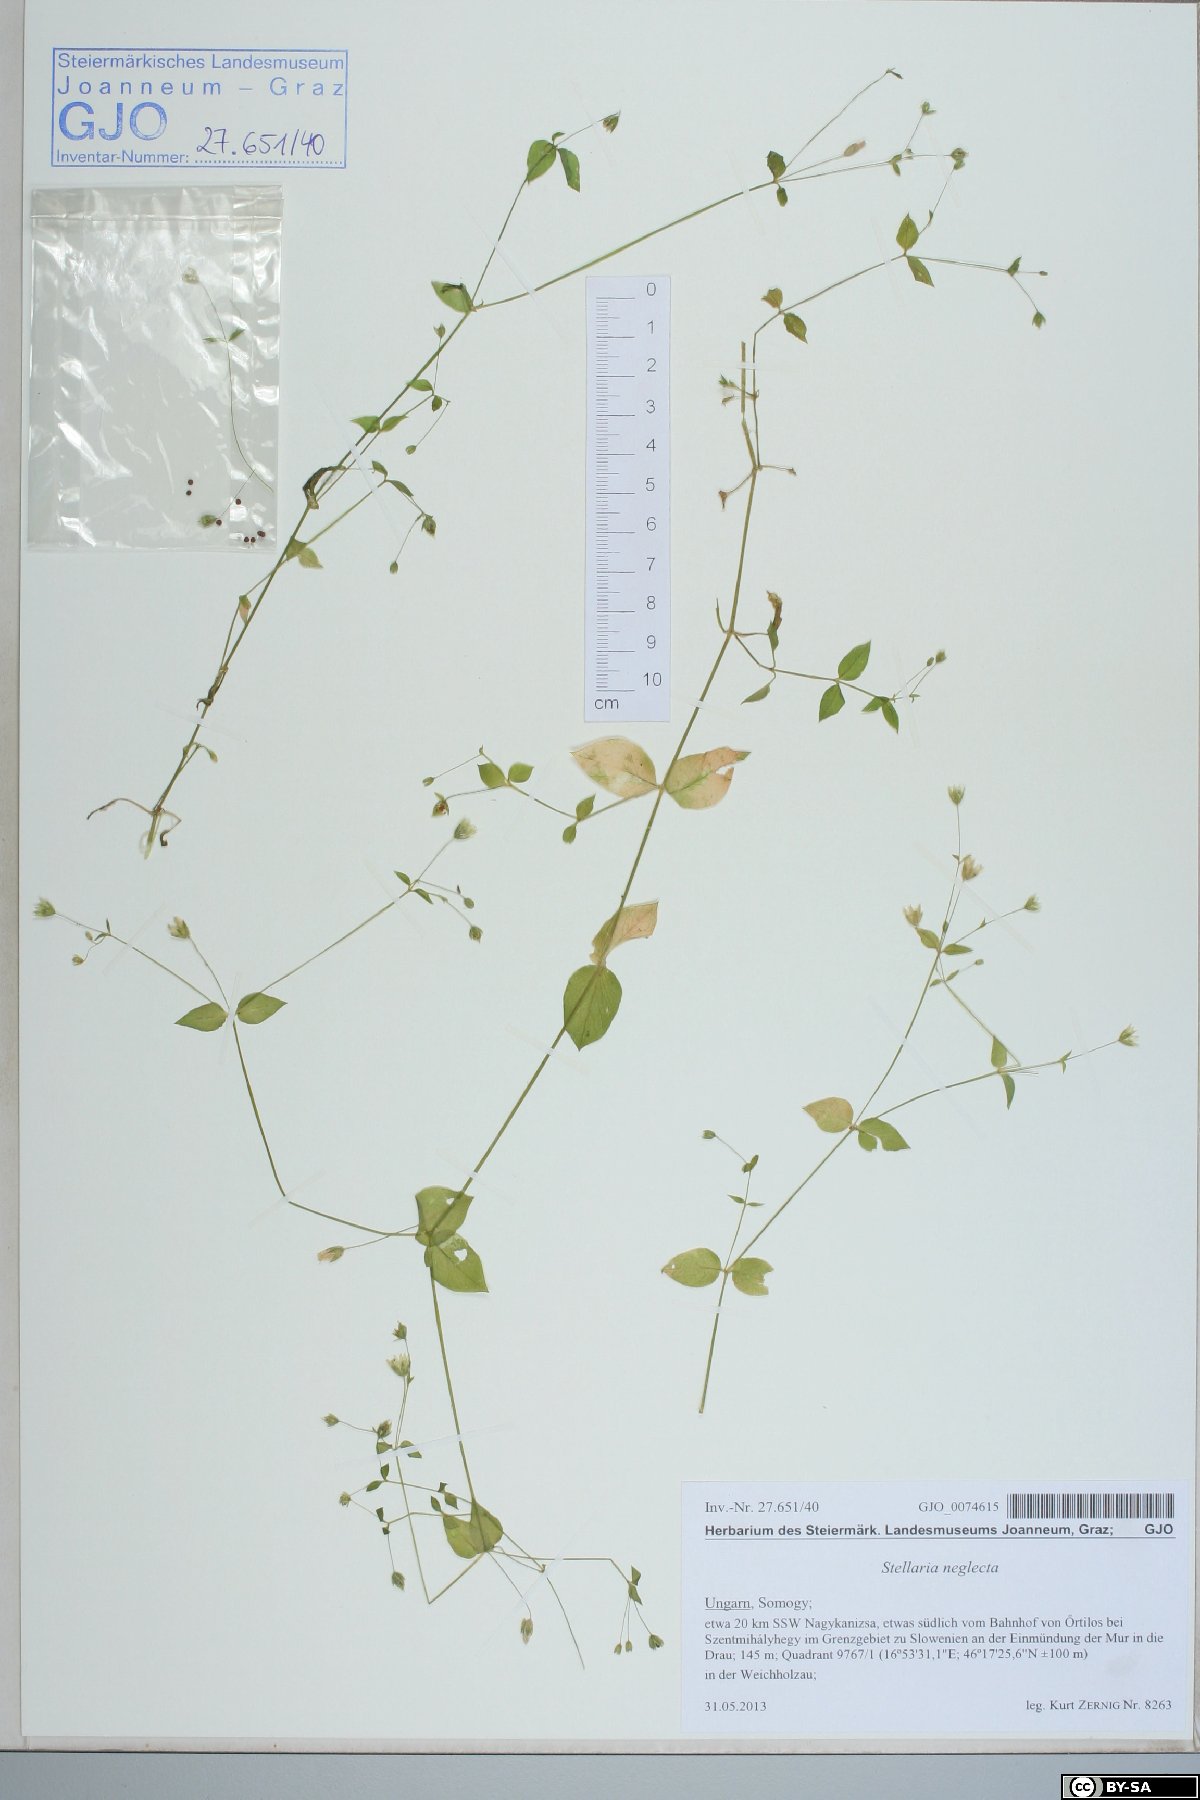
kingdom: Plantae
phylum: Tracheophyta
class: Magnoliopsida
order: Caryophyllales
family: Caryophyllaceae
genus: Stellaria
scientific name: Stellaria neglecta
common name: Greater chickweed
